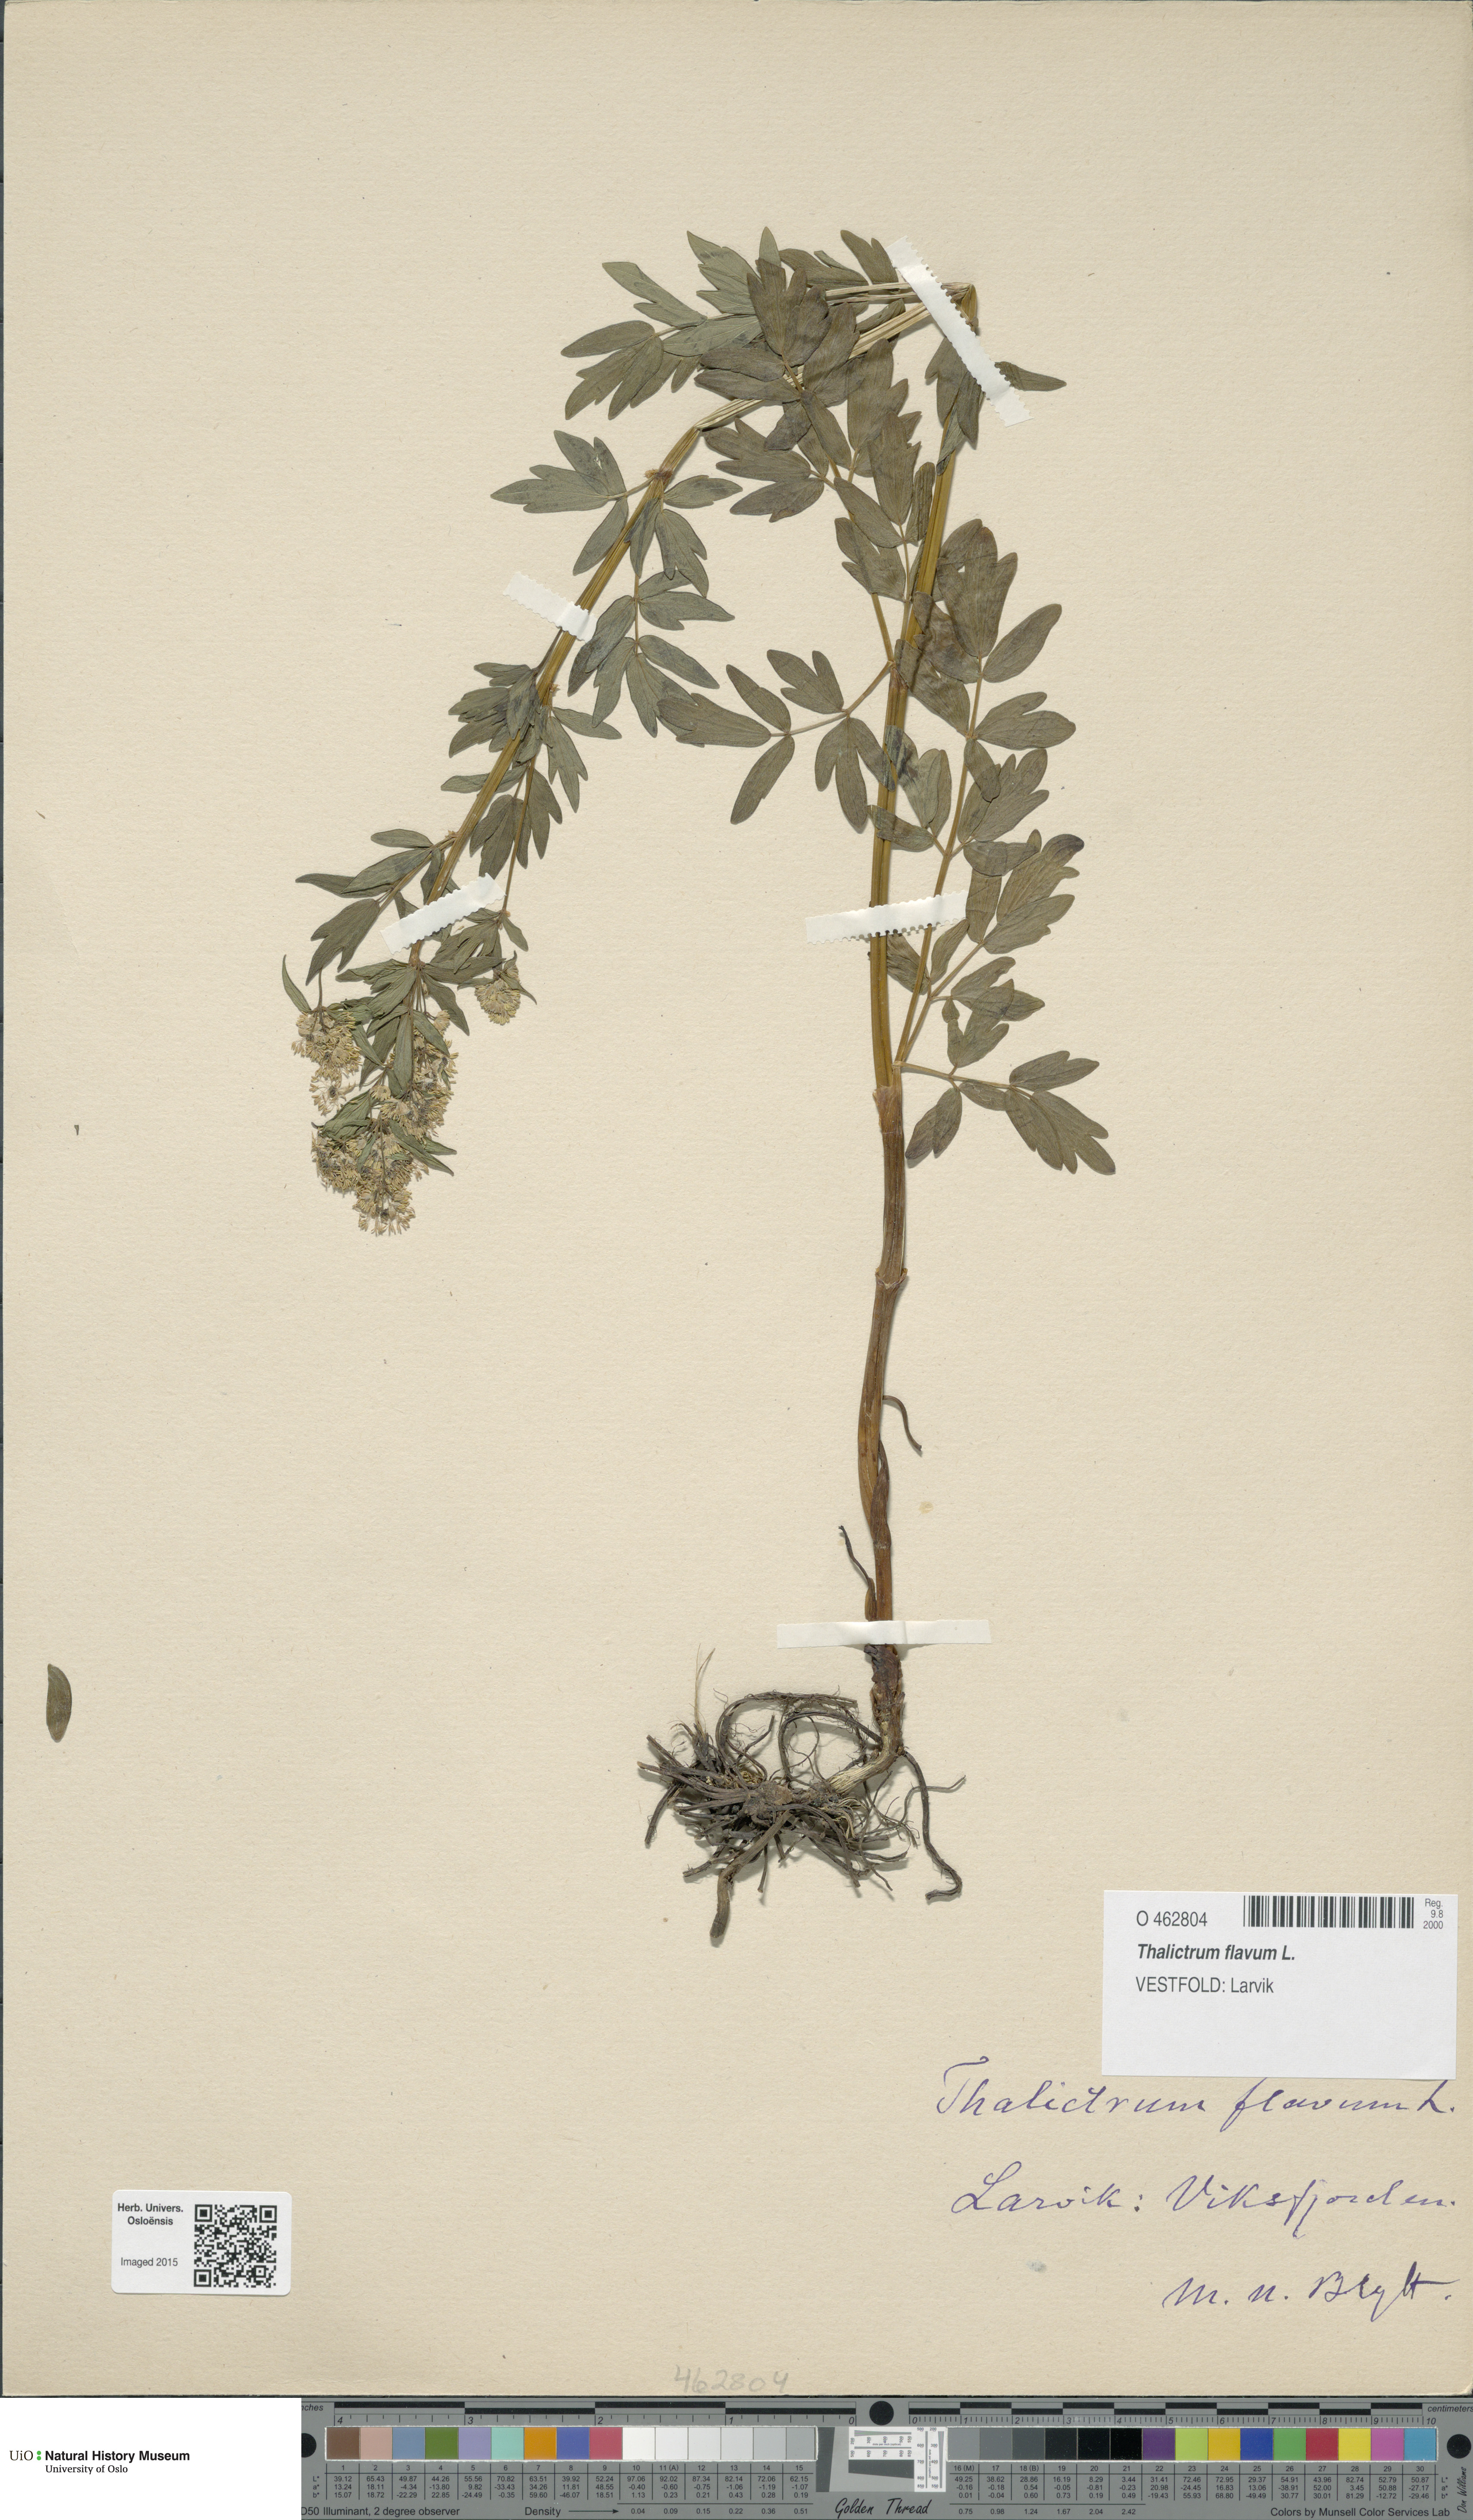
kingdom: Plantae
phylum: Tracheophyta
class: Magnoliopsida
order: Ranunculales
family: Ranunculaceae
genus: Thalictrum
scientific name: Thalictrum flavum
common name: Common meadow-rue
